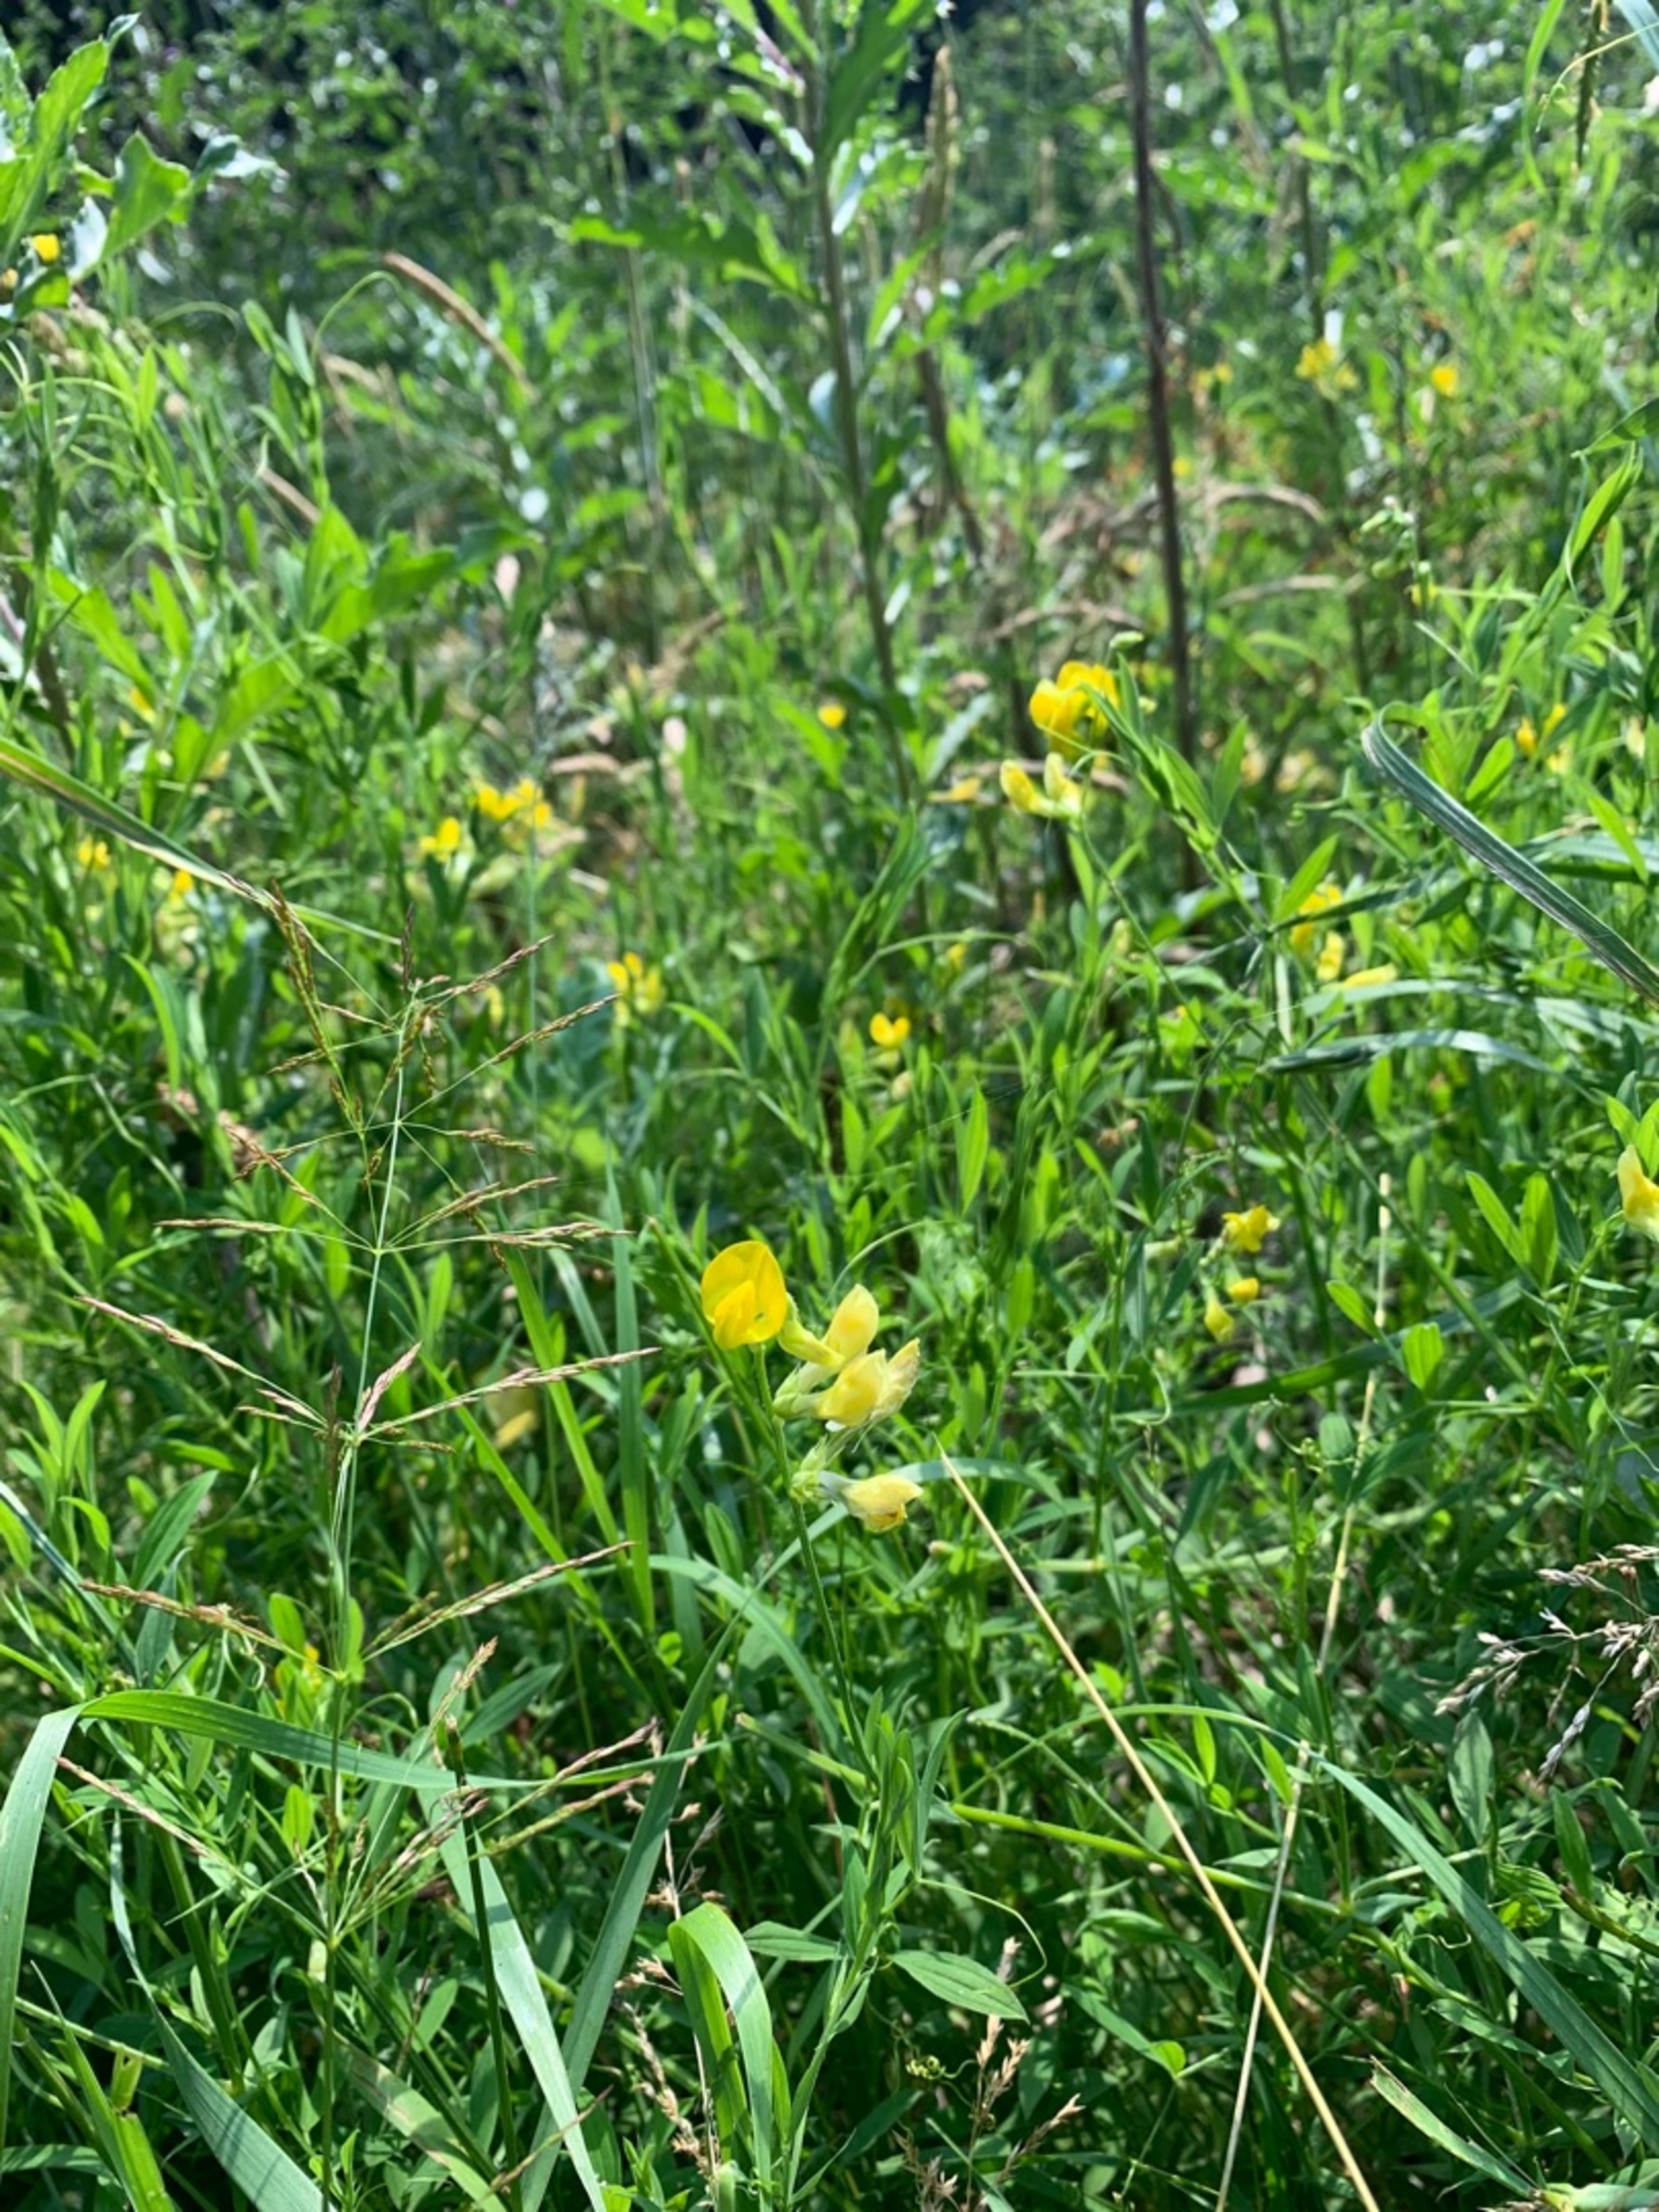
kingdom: Plantae
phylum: Tracheophyta
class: Magnoliopsida
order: Fabales
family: Fabaceae
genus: Lathyrus
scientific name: Lathyrus pratensis
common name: Gul fladbælg
